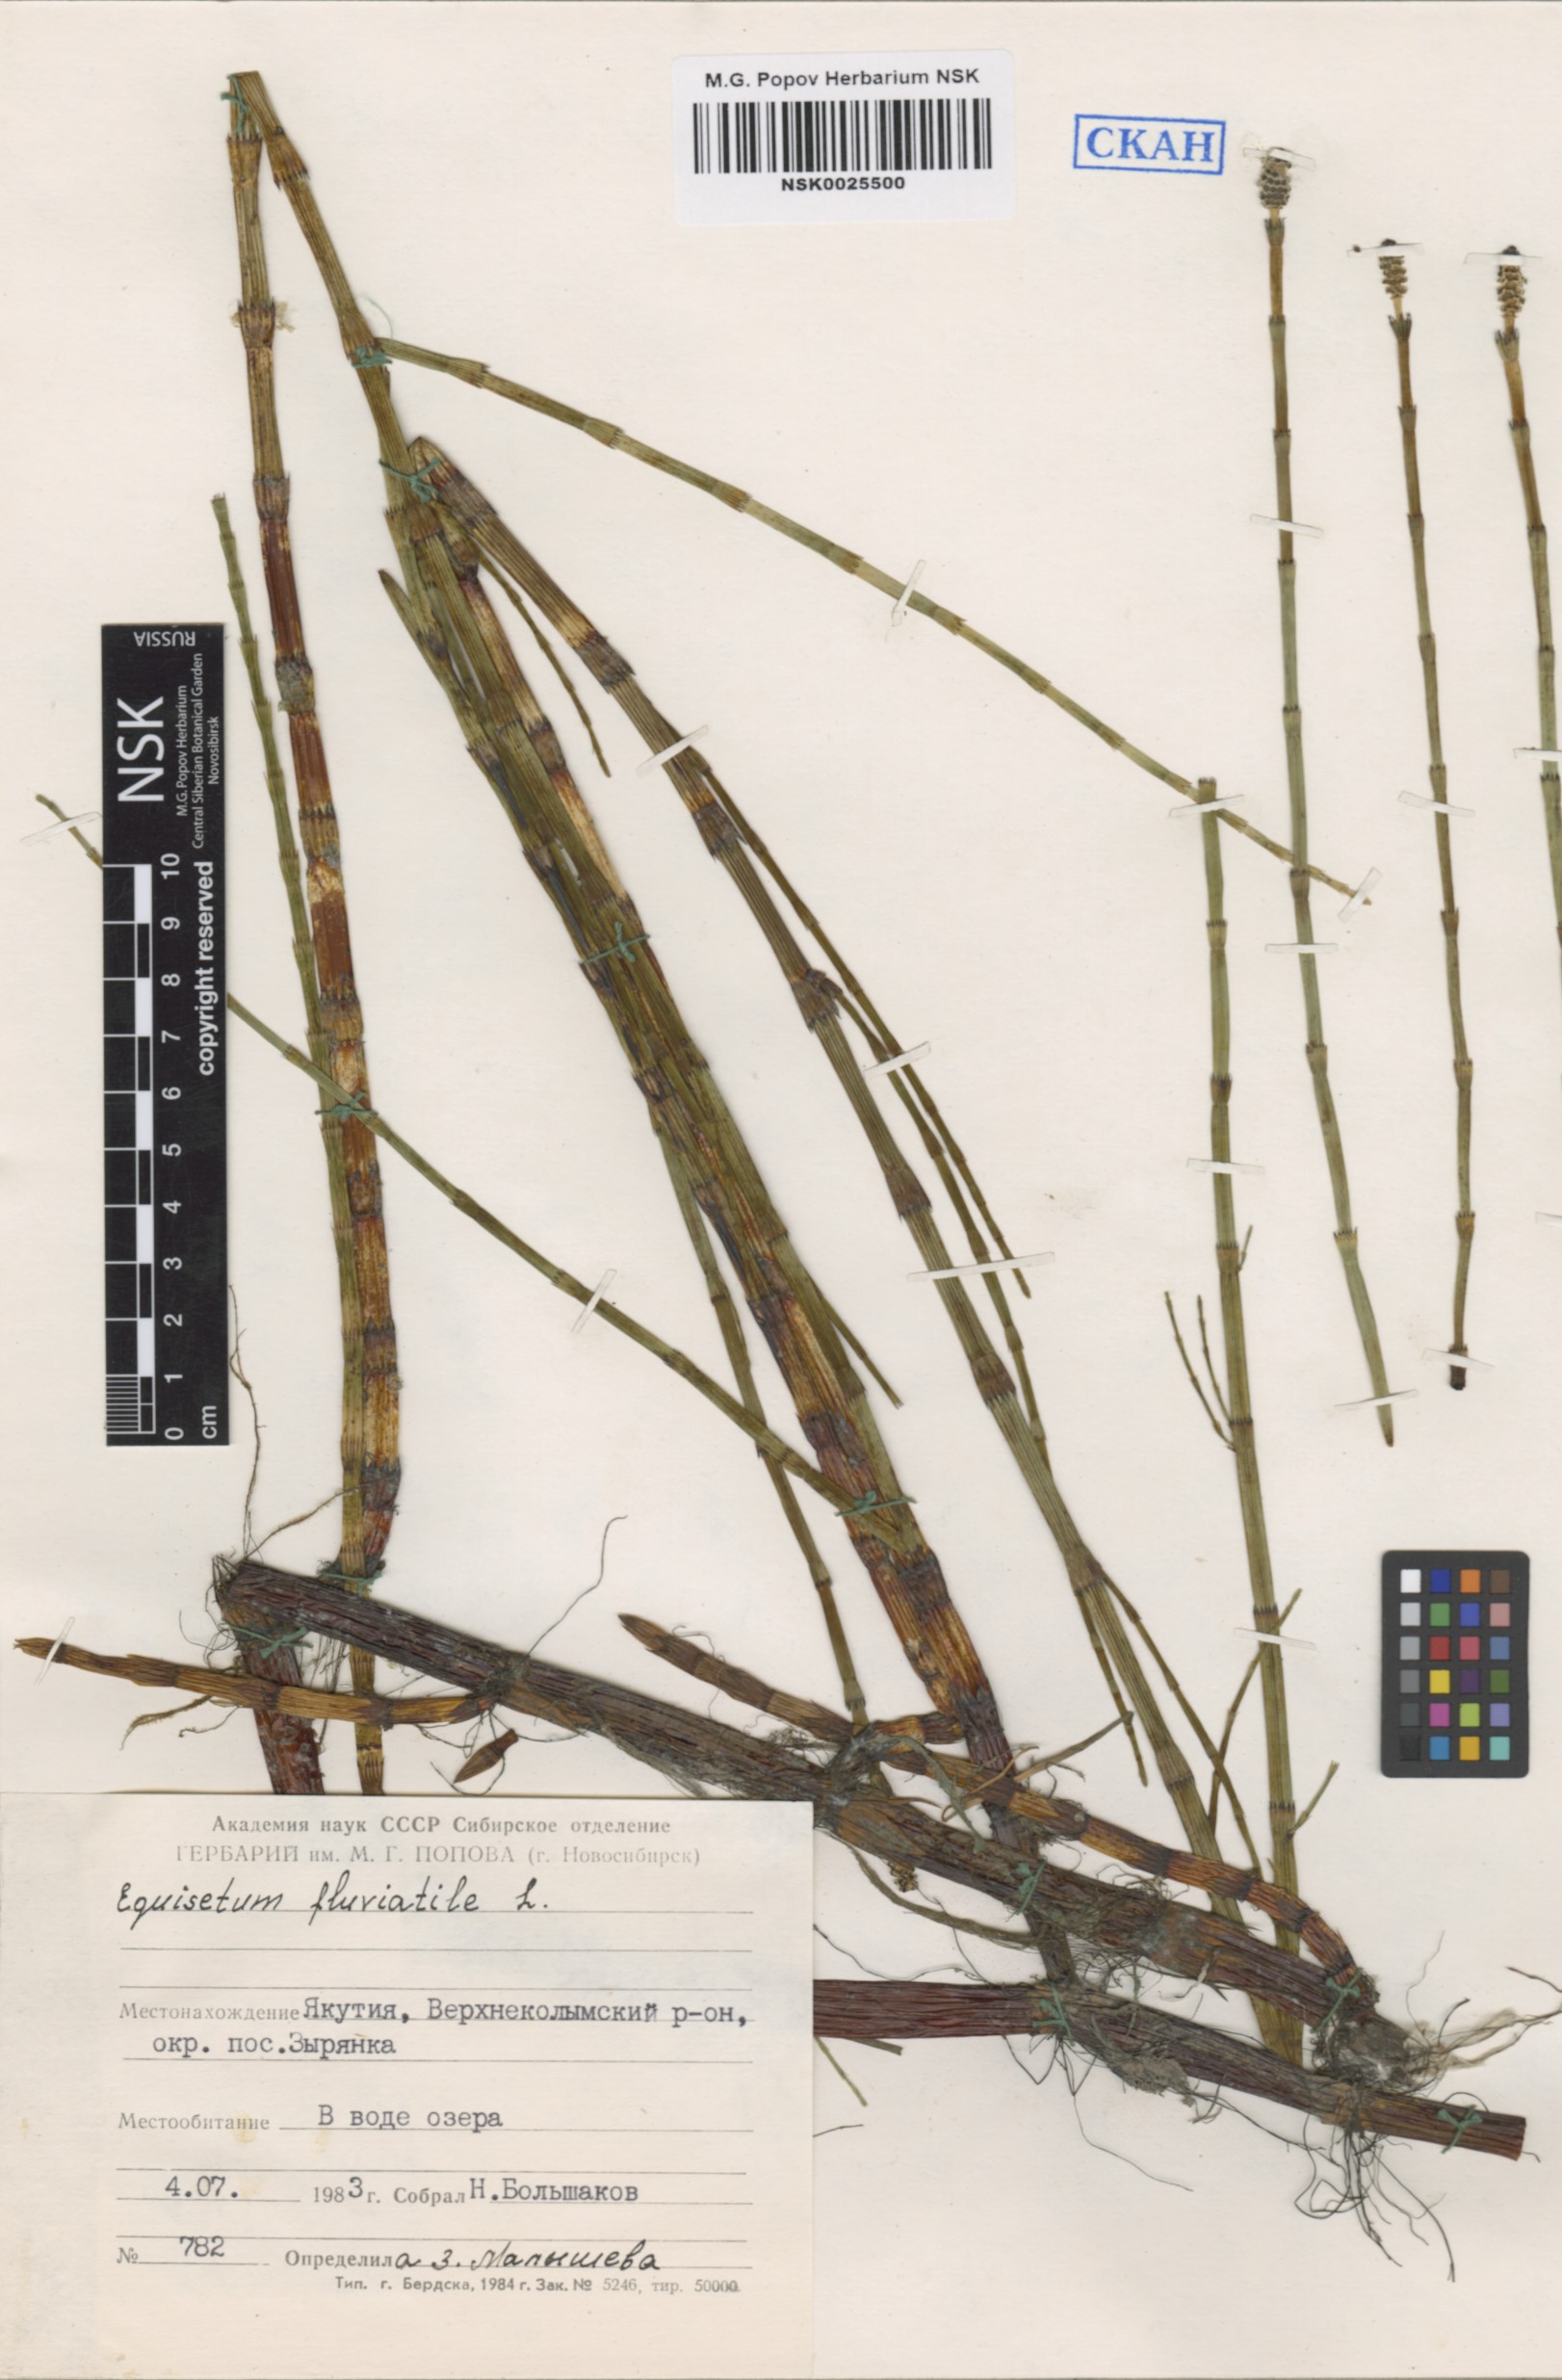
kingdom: Plantae
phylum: Tracheophyta
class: Polypodiopsida
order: Equisetales
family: Equisetaceae
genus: Equisetum
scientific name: Equisetum fluviatile
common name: Water horsetail
